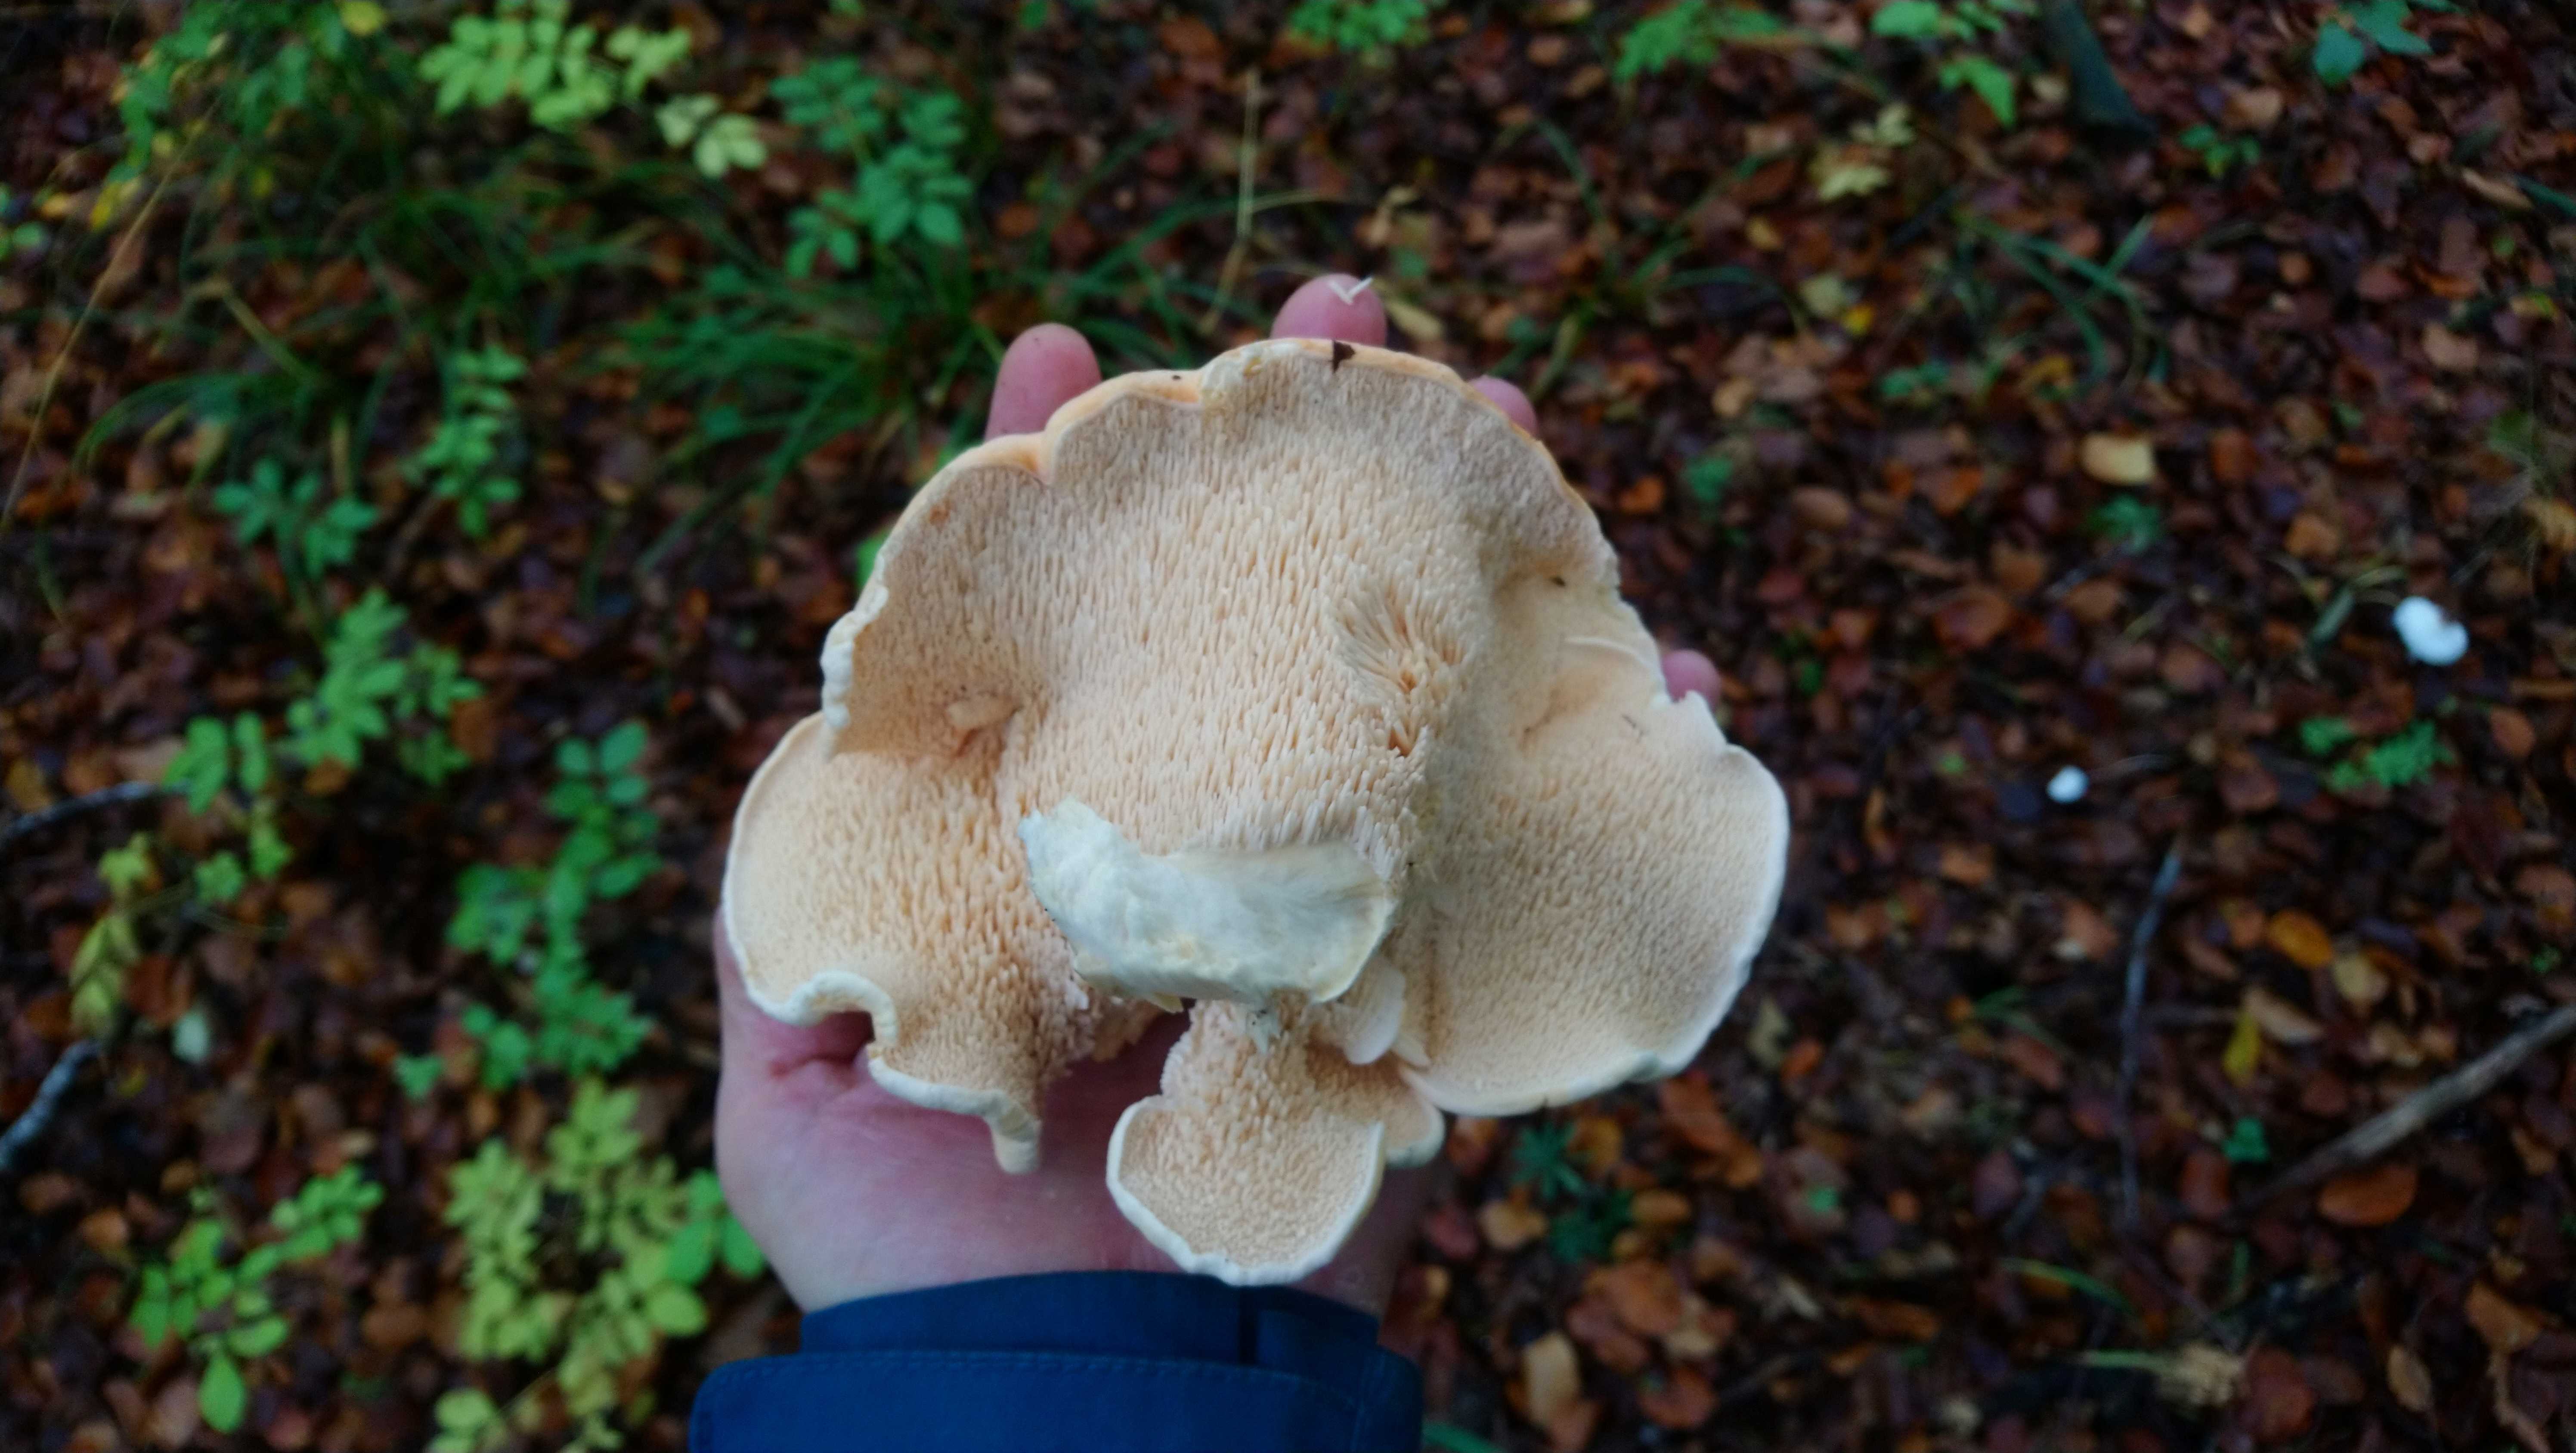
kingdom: Fungi
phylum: Basidiomycota
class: Agaricomycetes
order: Cantharellales
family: Hydnaceae
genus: Hydnum
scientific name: Hydnum
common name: pigsvamp
